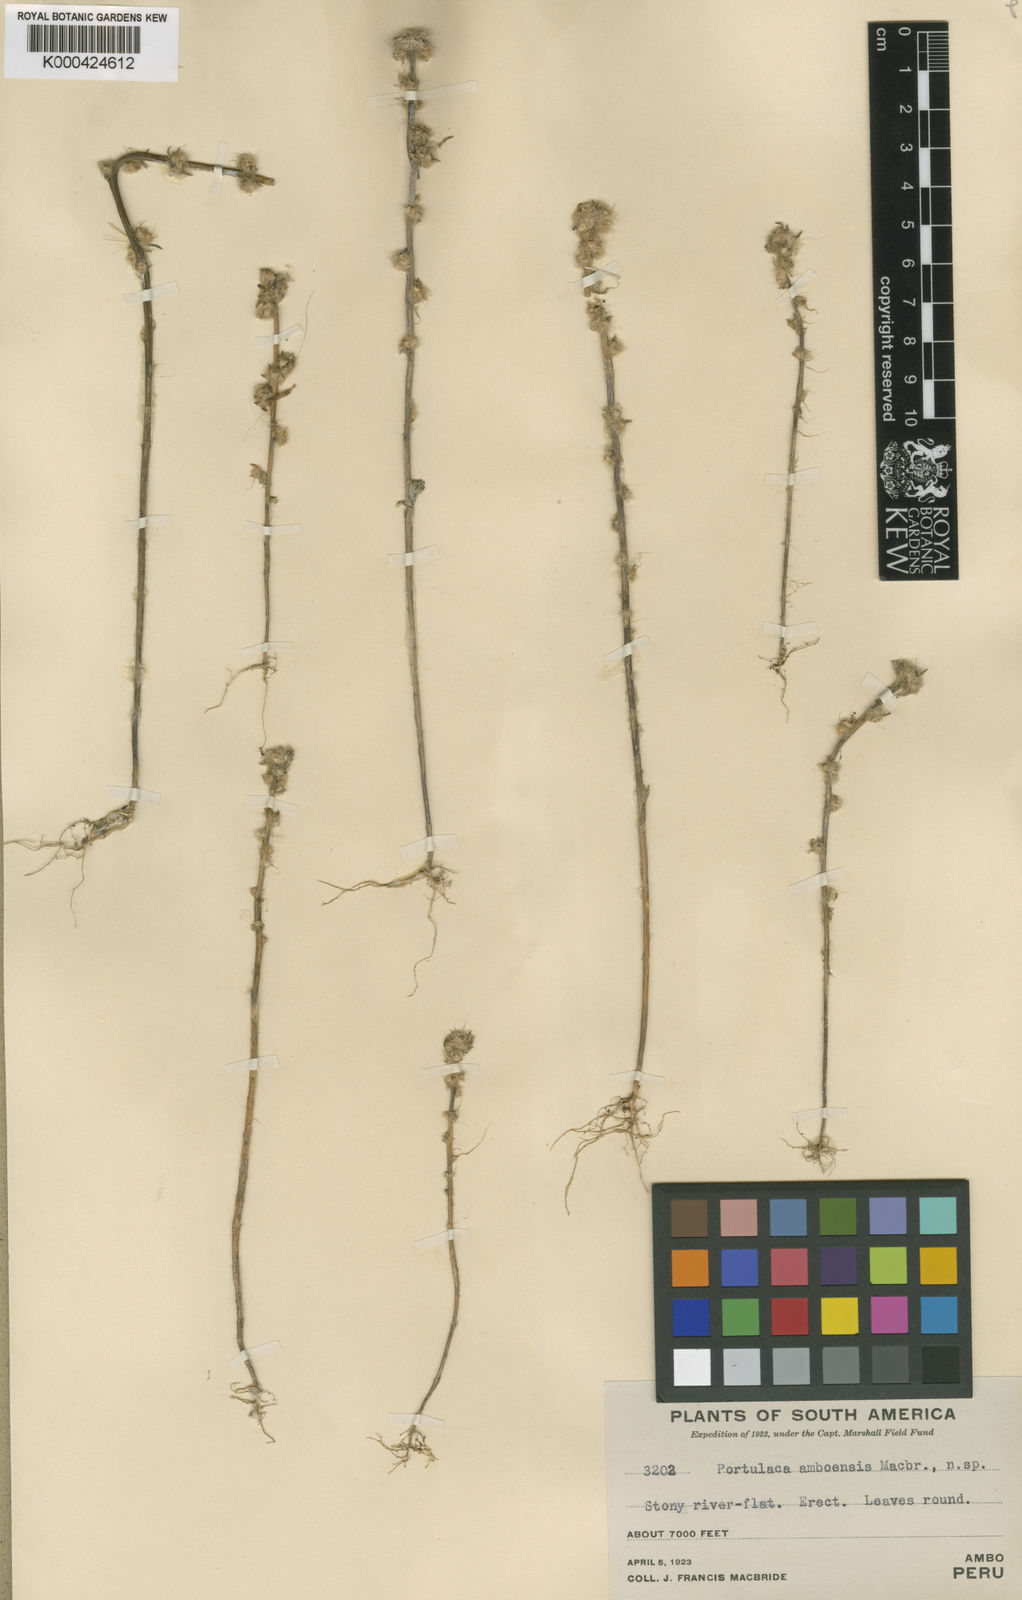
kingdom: Plantae
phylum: Tracheophyta
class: Magnoliopsida
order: Caryophyllales
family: Portulacaceae
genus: Portulaca
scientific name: Portulaca elongata
